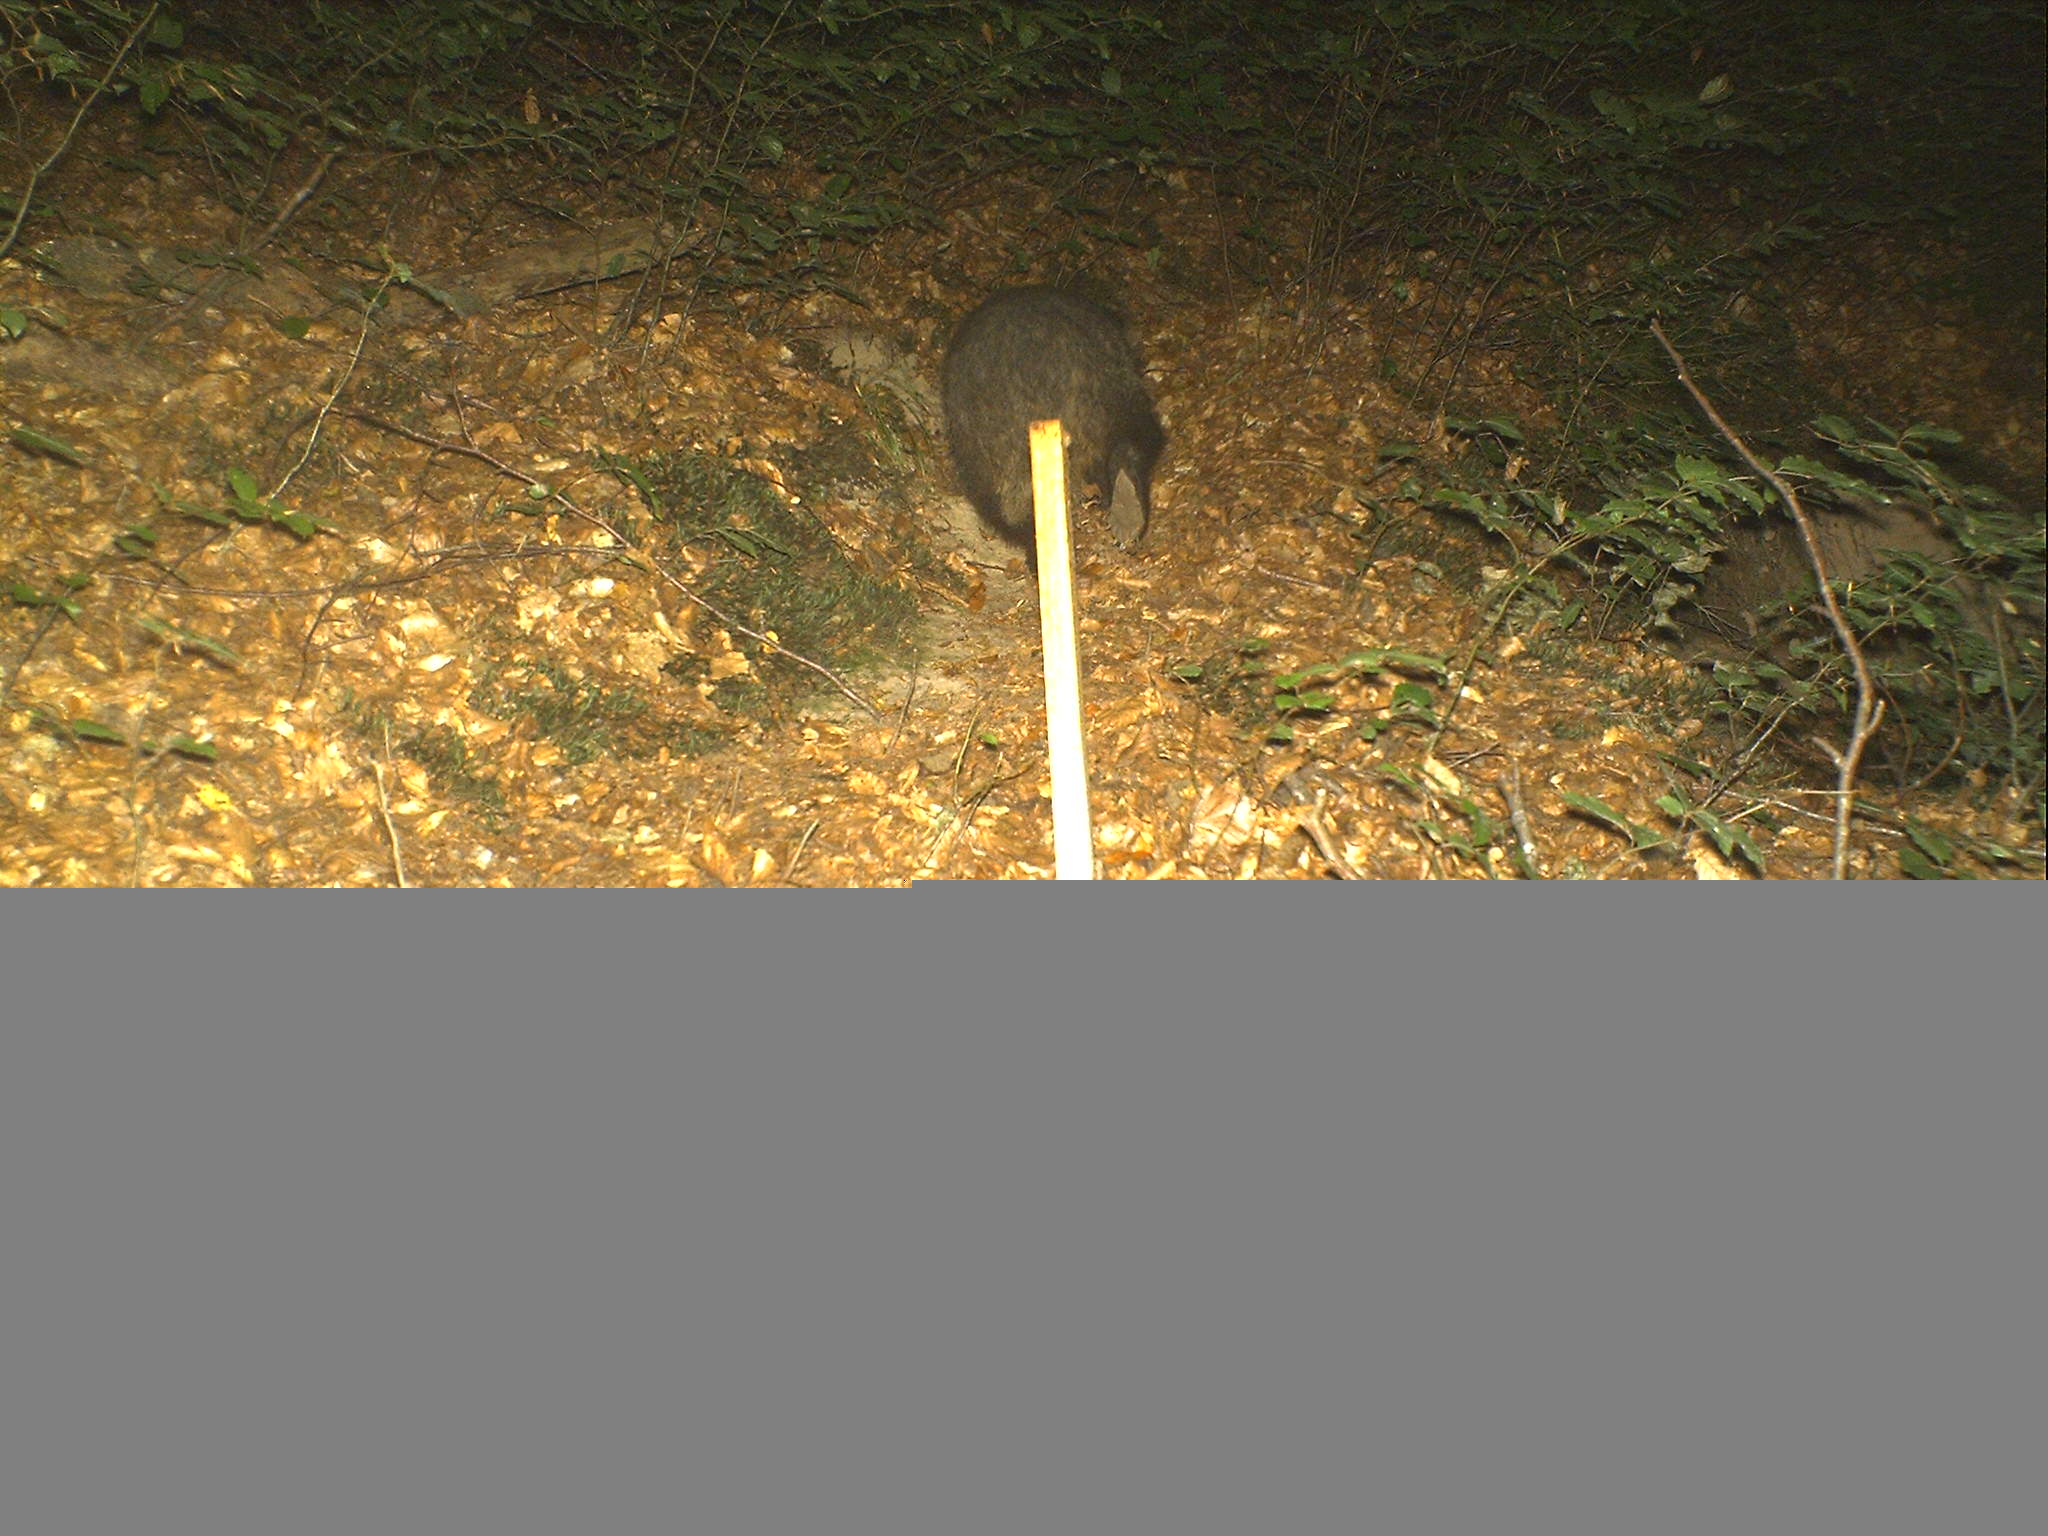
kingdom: Animalia
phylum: Chordata
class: Mammalia
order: Carnivora
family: Mustelidae
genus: Meles
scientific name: Meles meles
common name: Eurasian badger
